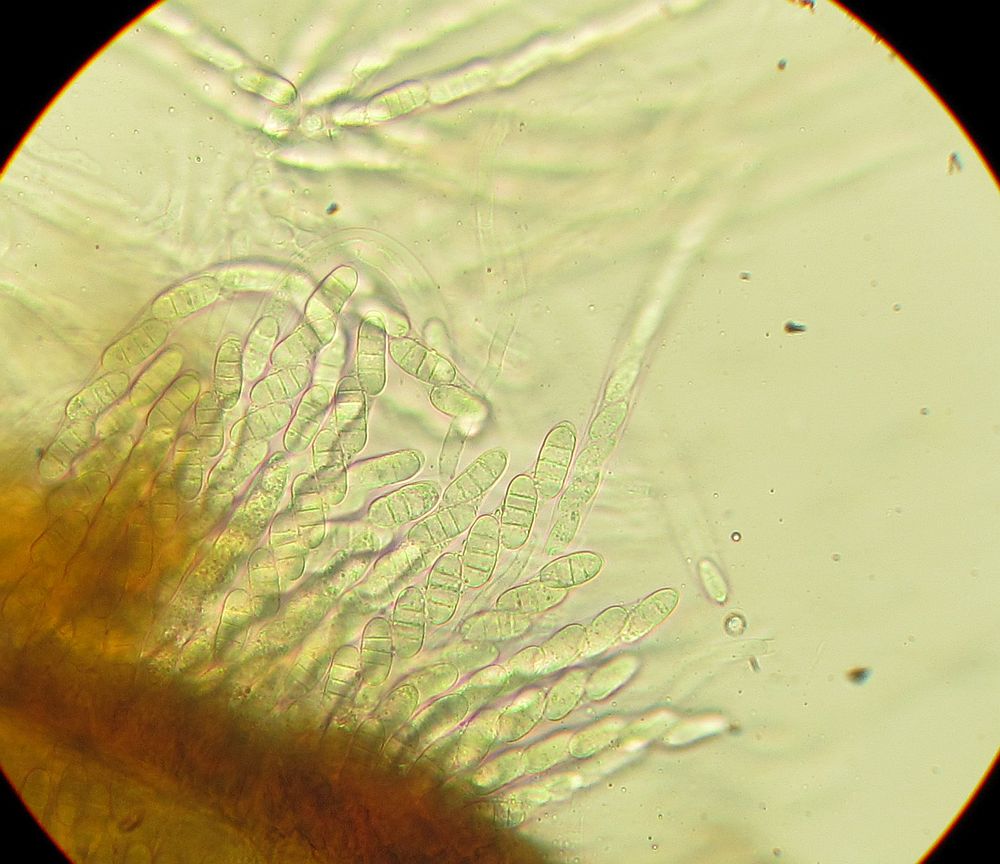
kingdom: Fungi
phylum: Ascomycota
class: Sordariomycetes
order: Amphisphaeriales
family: Sporocadaceae
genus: Discostroma
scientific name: Discostroma corticola
